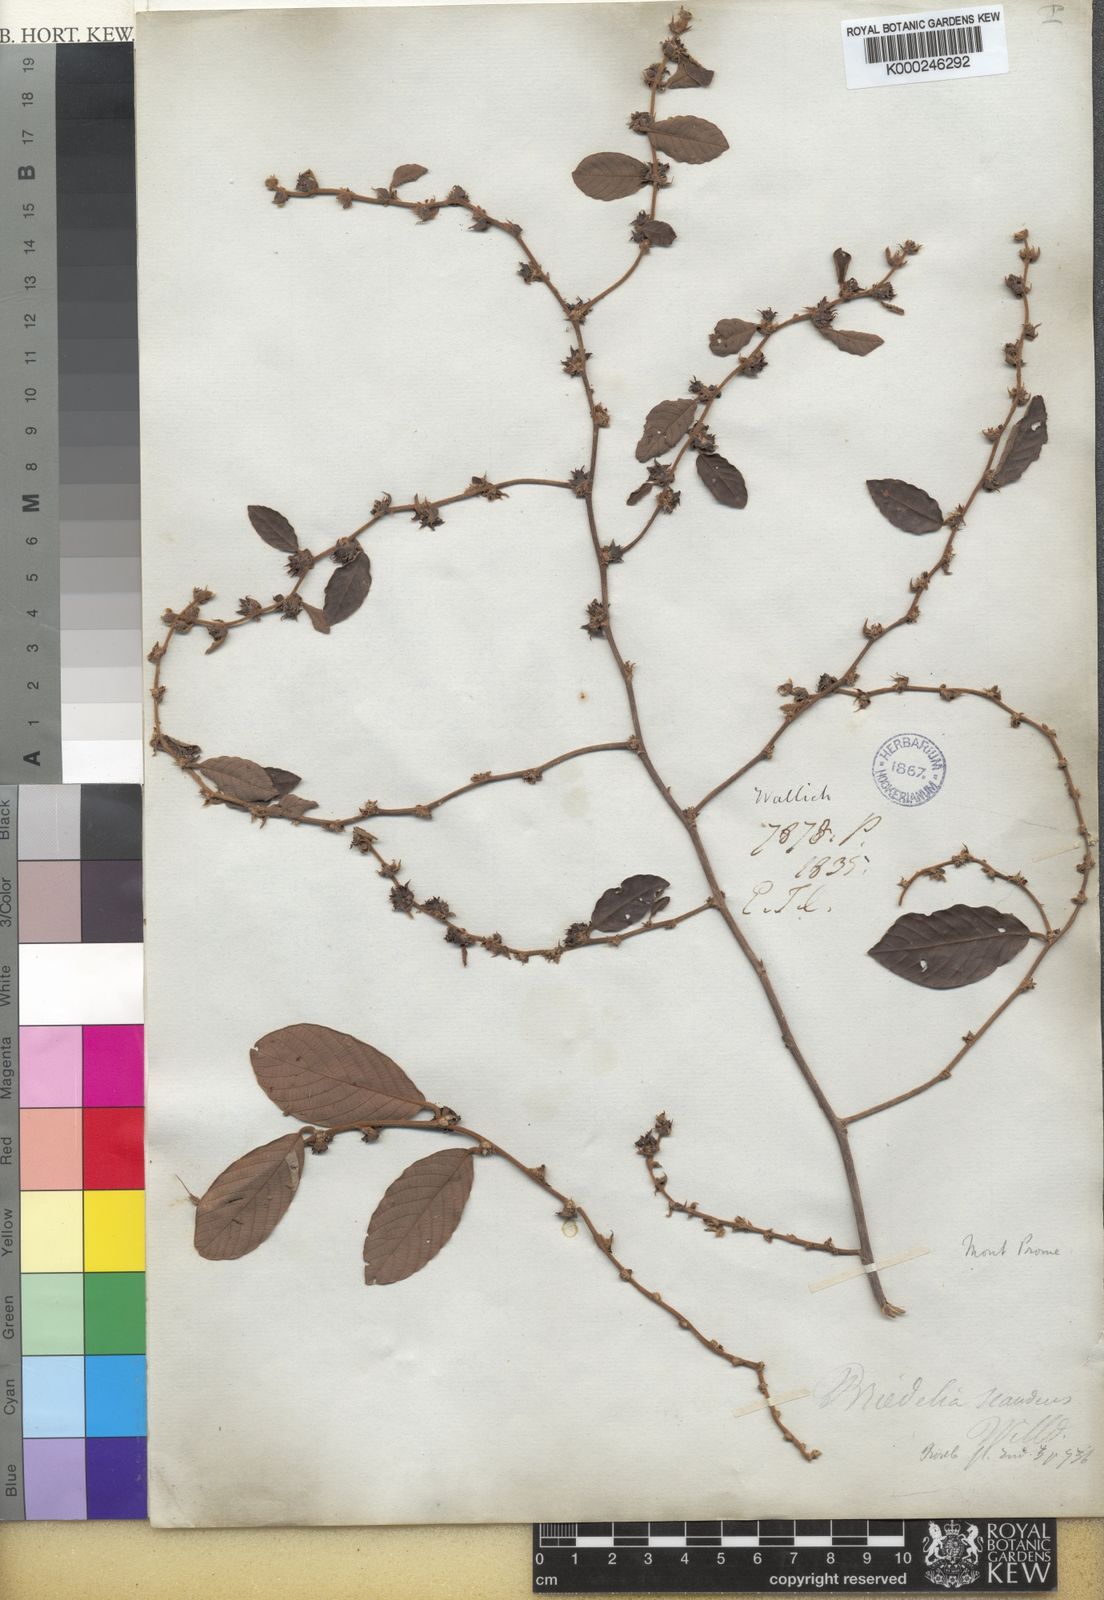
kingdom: Plantae
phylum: Tracheophyta
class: Magnoliopsida
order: Malpighiales
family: Phyllanthaceae
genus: Bridelia
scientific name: Bridelia stipularis
